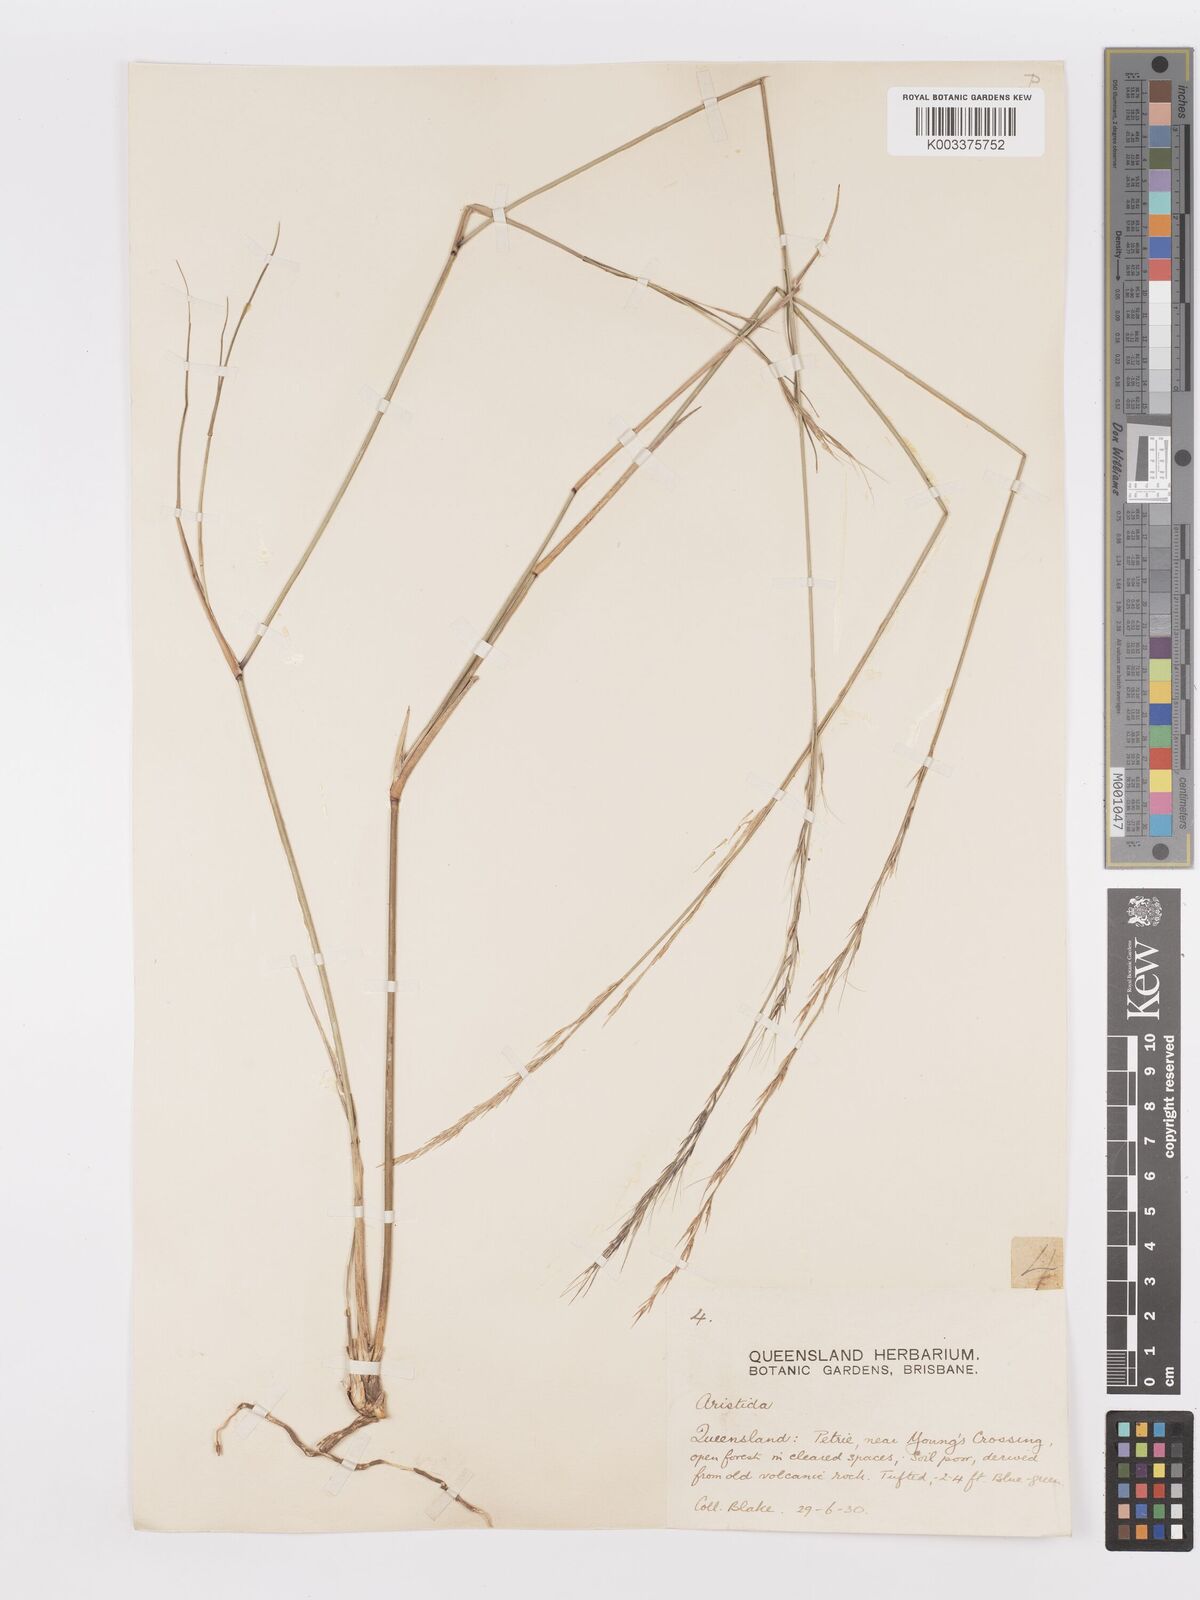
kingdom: Plantae
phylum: Tracheophyta
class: Liliopsida
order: Poales
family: Poaceae
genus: Aristida
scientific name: Aristida
